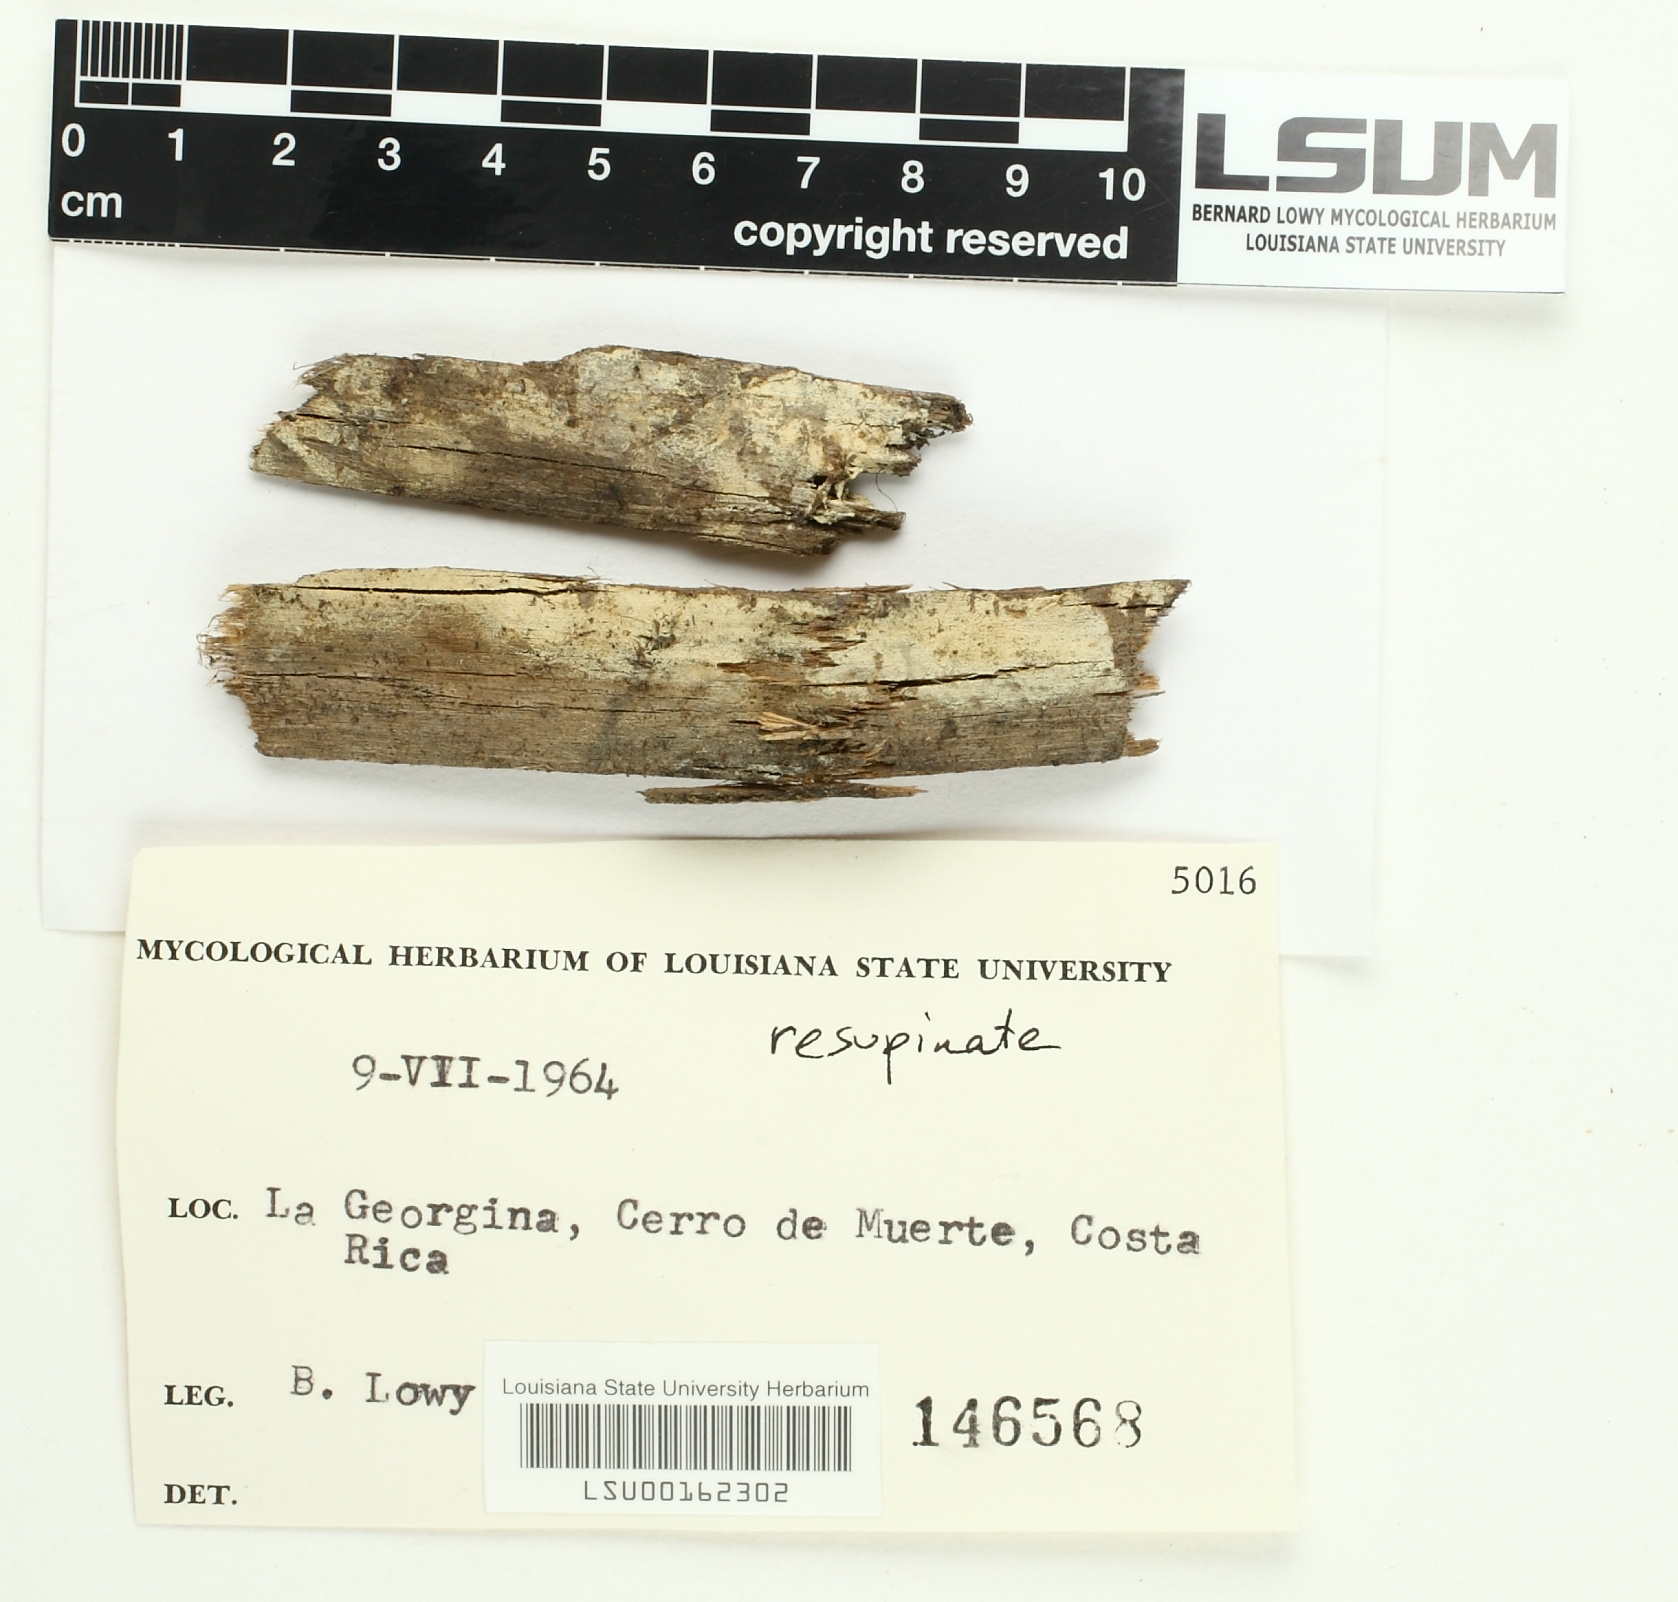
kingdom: Fungi
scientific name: Fungi
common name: Fungi
